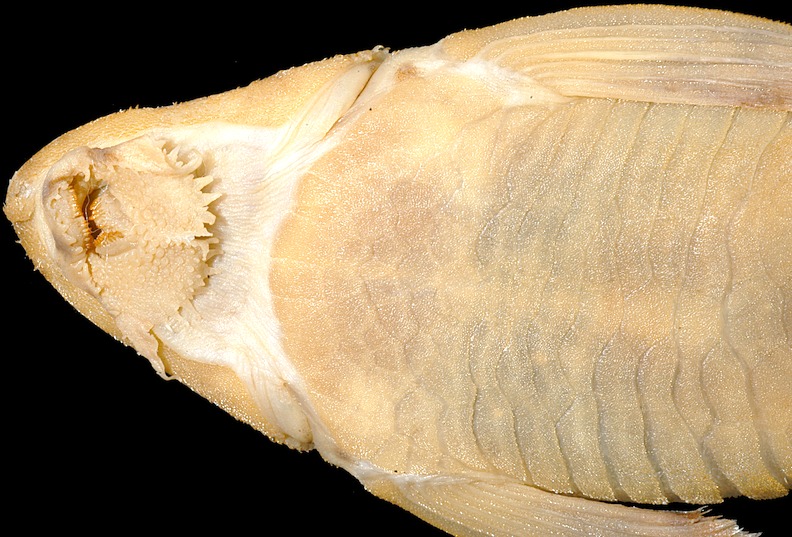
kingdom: Animalia
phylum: Chordata
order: Siluriformes
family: Loricariidae
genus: Rineloricaria
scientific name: Rineloricaria fallax
